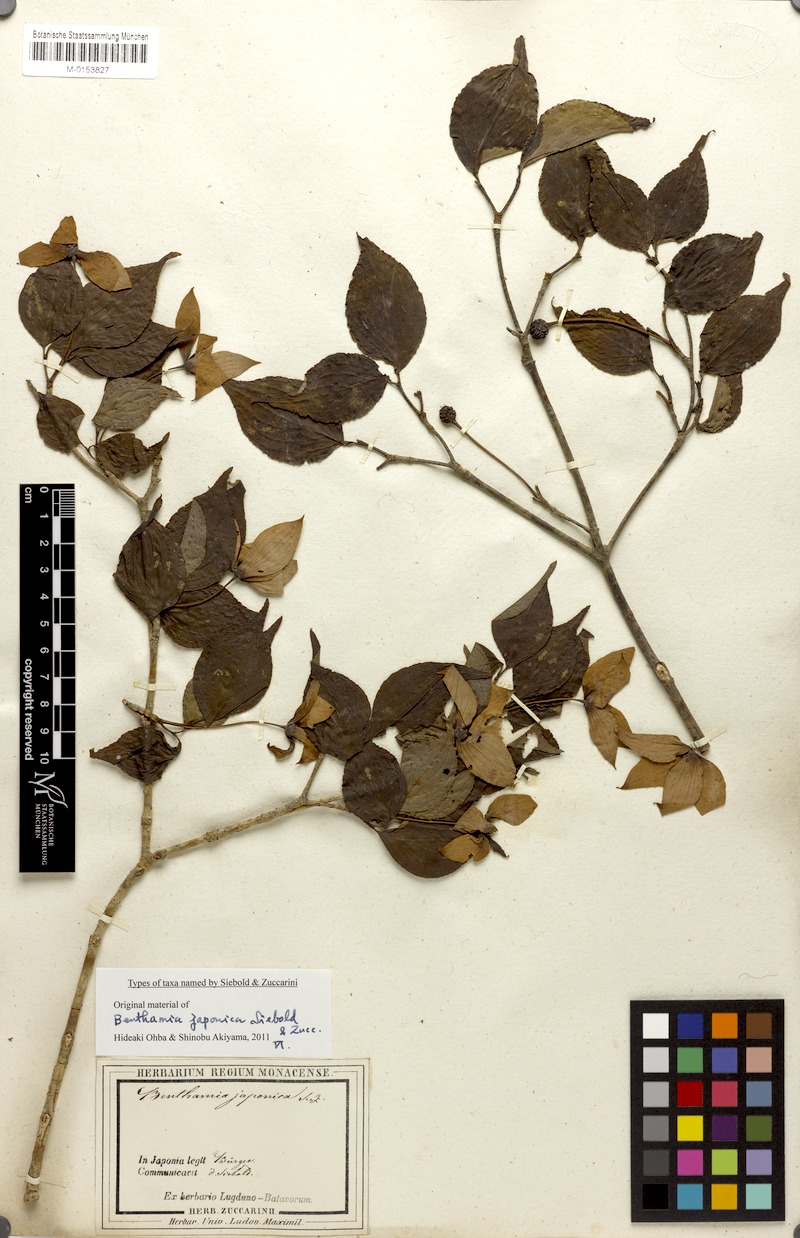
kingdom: Plantae
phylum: Tracheophyta
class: Magnoliopsida
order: Cornales
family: Cornaceae
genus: Cornus
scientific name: Cornus kousa
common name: Japanese dogwood
